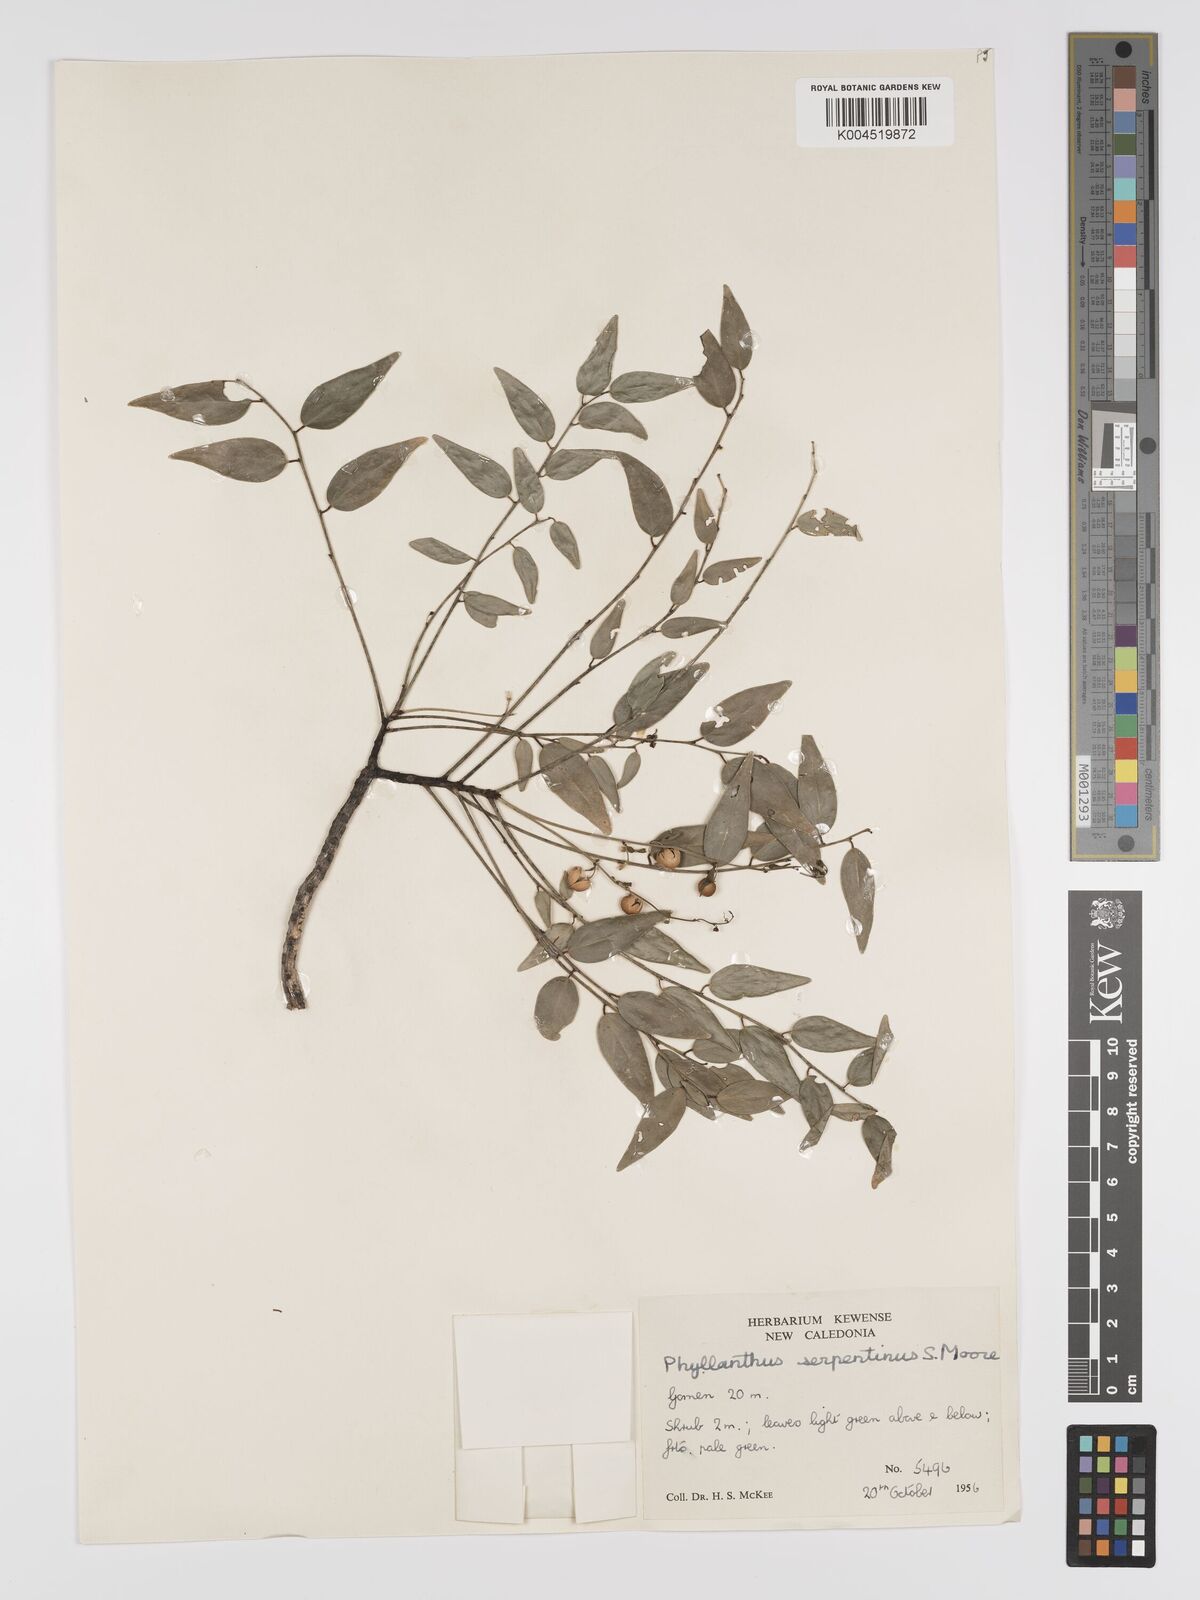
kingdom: Plantae
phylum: Tracheophyta
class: Magnoliopsida
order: Malpighiales
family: Phyllanthaceae
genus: Phyllanthus
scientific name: Phyllanthus serpentinus
